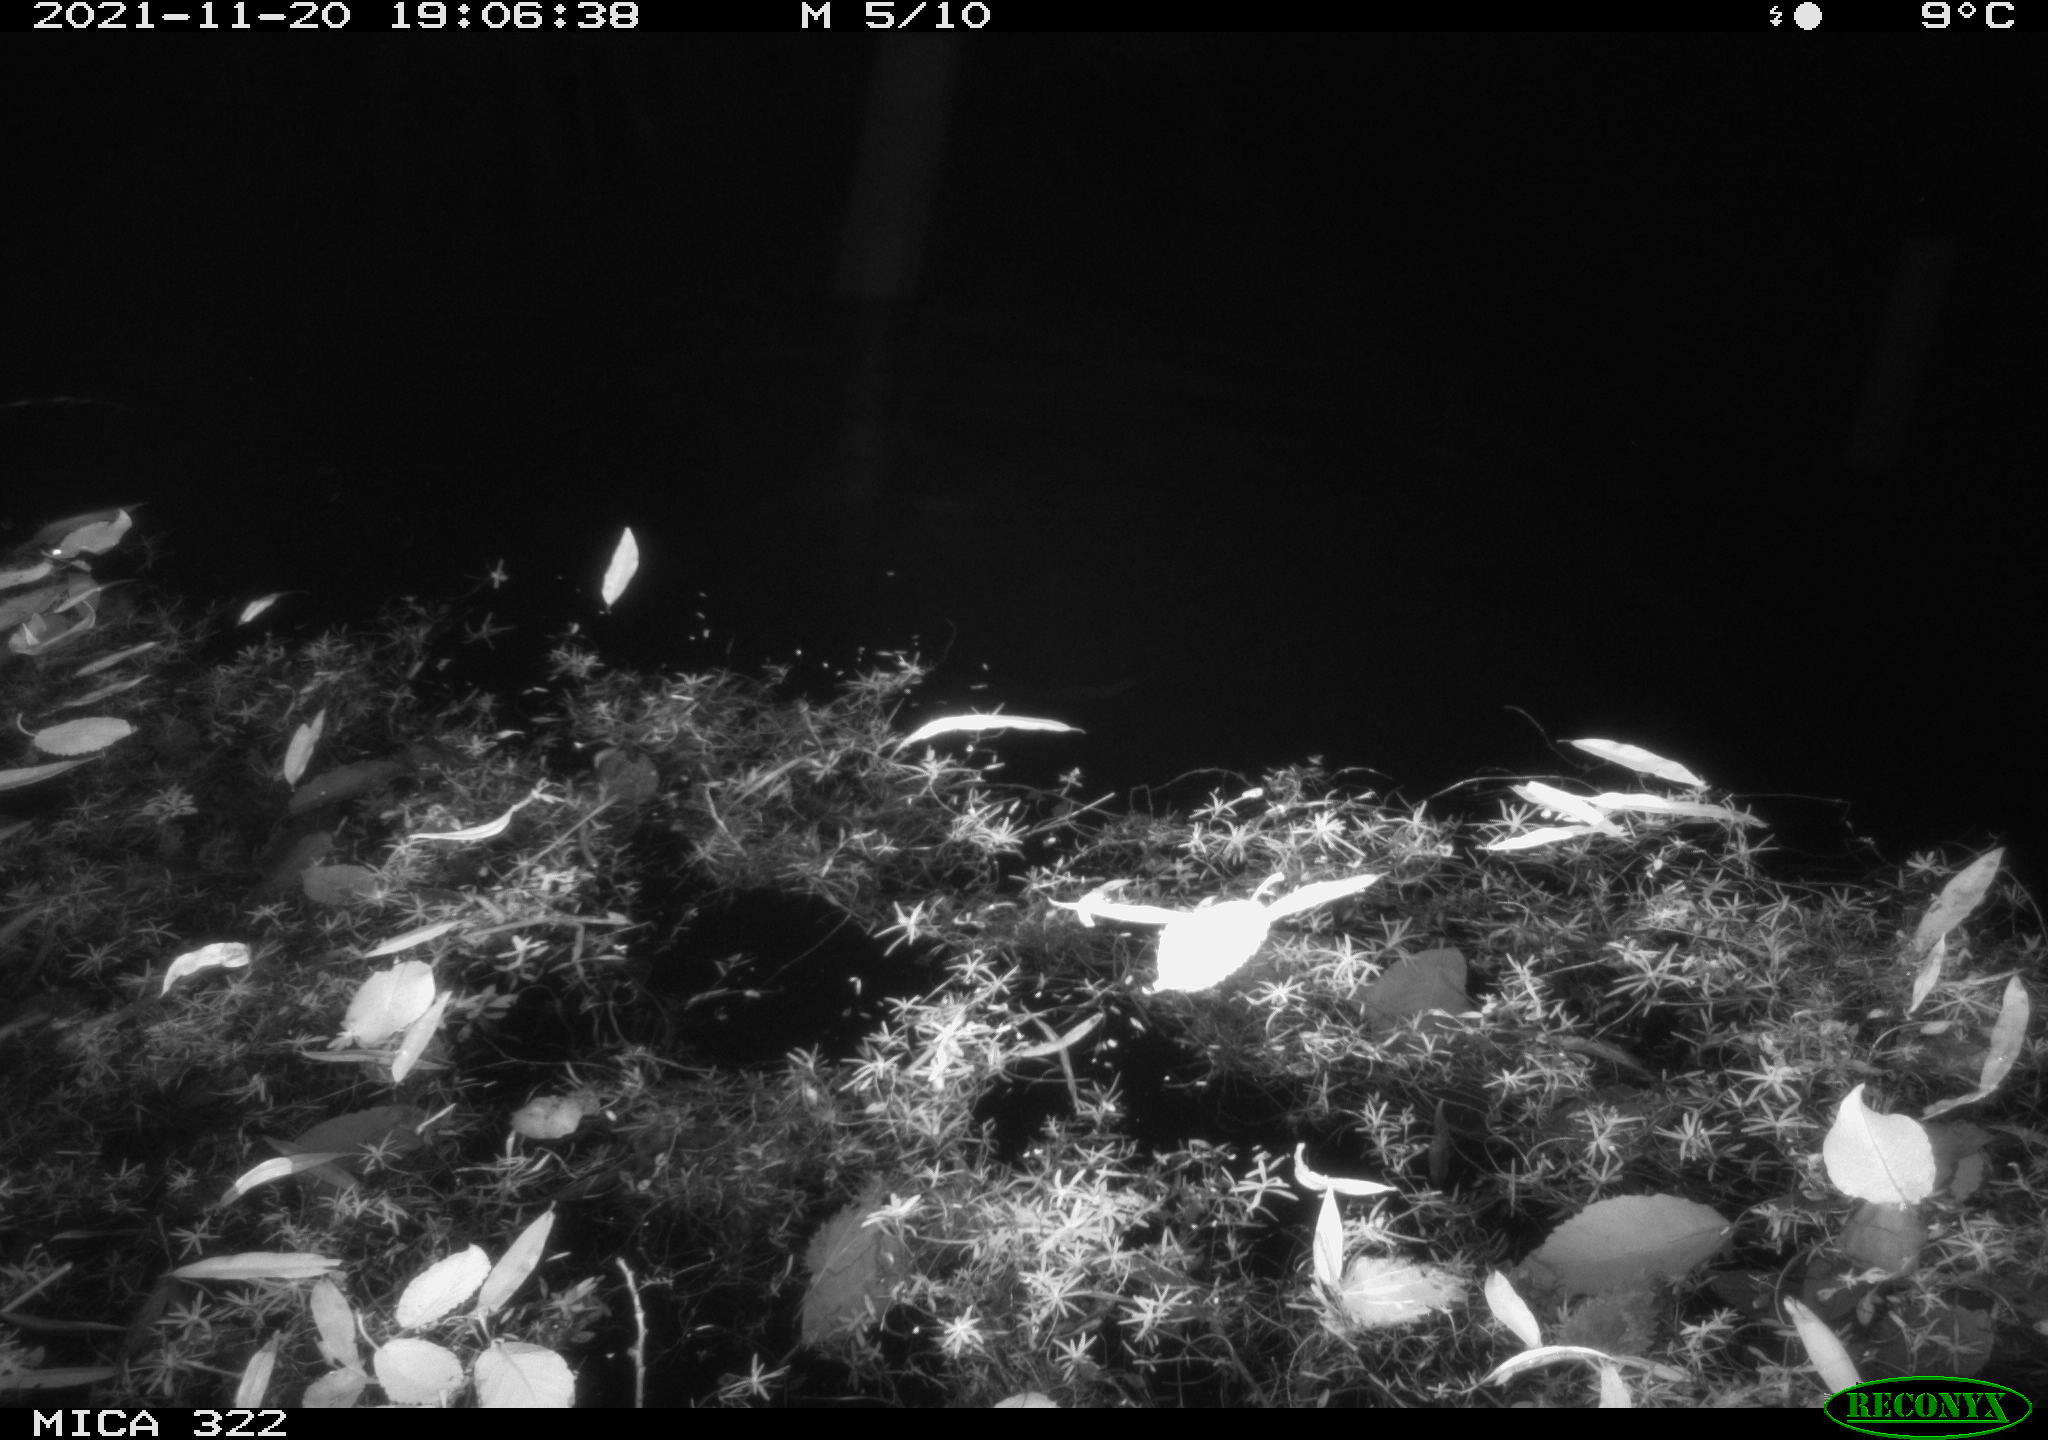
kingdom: Animalia
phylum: Chordata
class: Mammalia
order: Rodentia
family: Muridae
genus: Rattus
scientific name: Rattus norvegicus
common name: Brown rat
